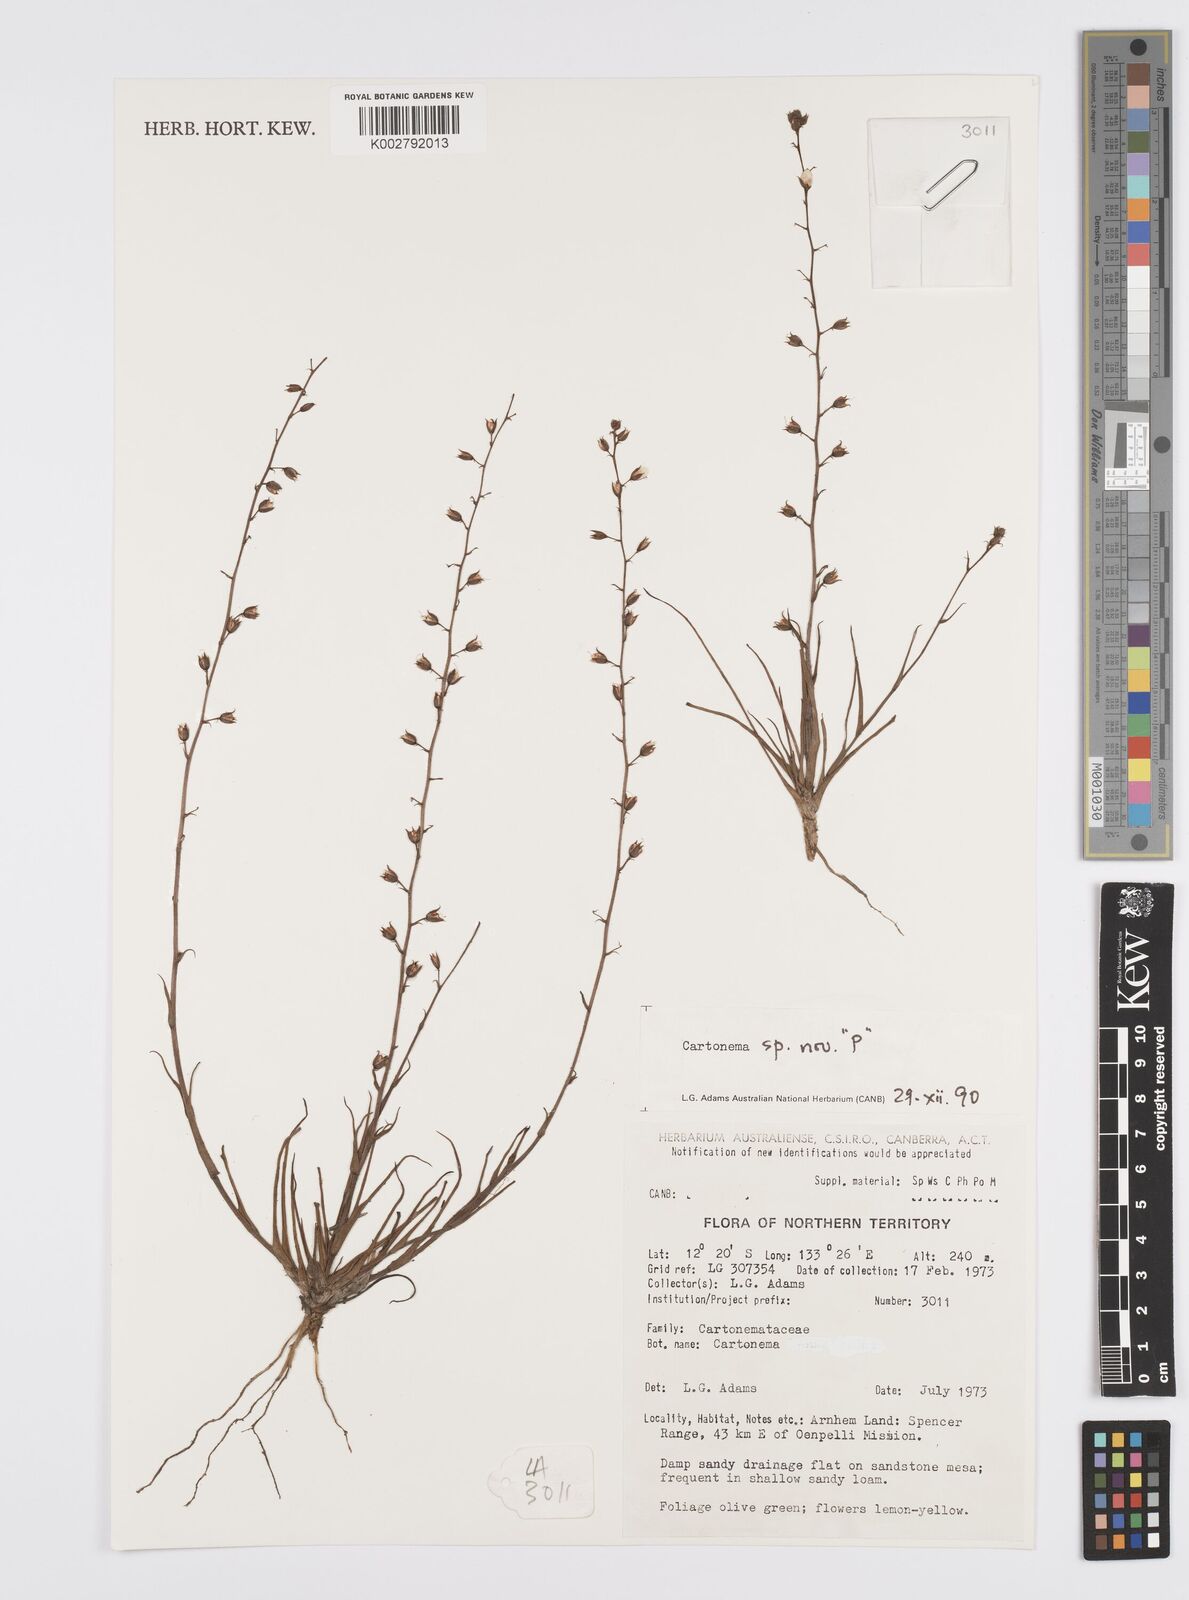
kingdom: Plantae
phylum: Tracheophyta
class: Liliopsida
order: Commelinales
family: Commelinaceae
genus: Cartonema
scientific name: Cartonema
